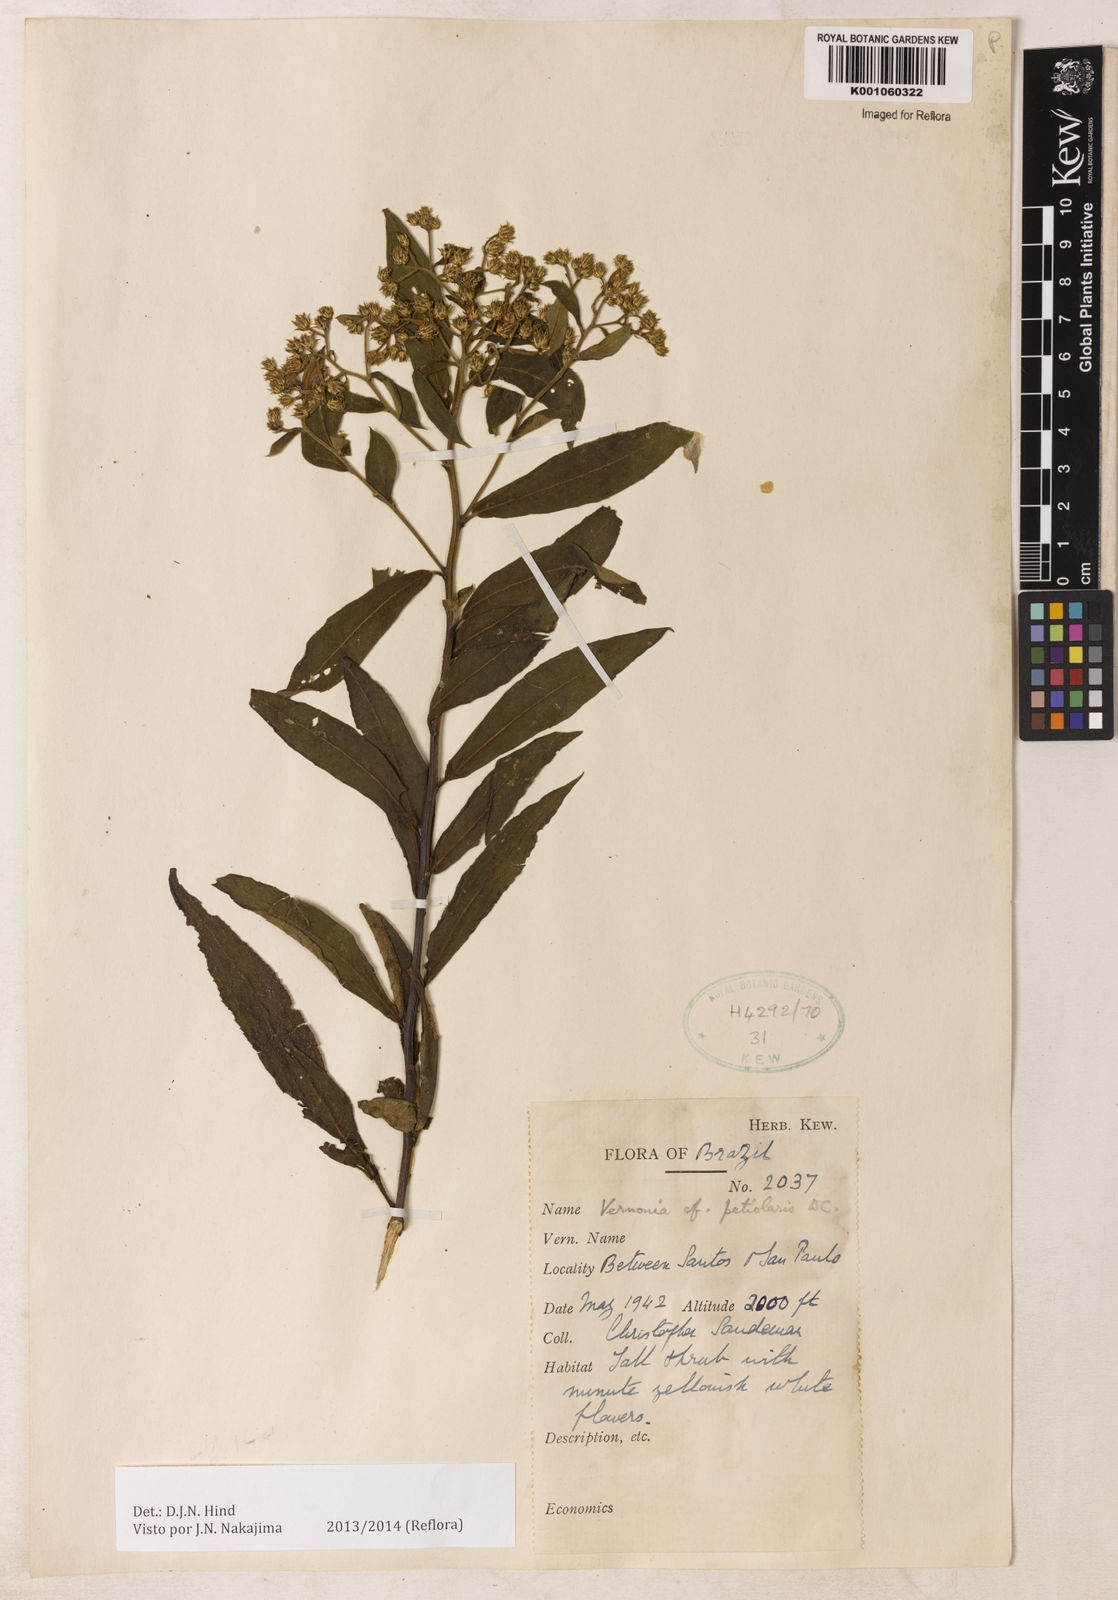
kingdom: Plantae
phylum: Tracheophyta
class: Magnoliopsida
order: Asterales
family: Asteraceae
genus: Vernonanthura
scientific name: Vernonanthura petiolaris
